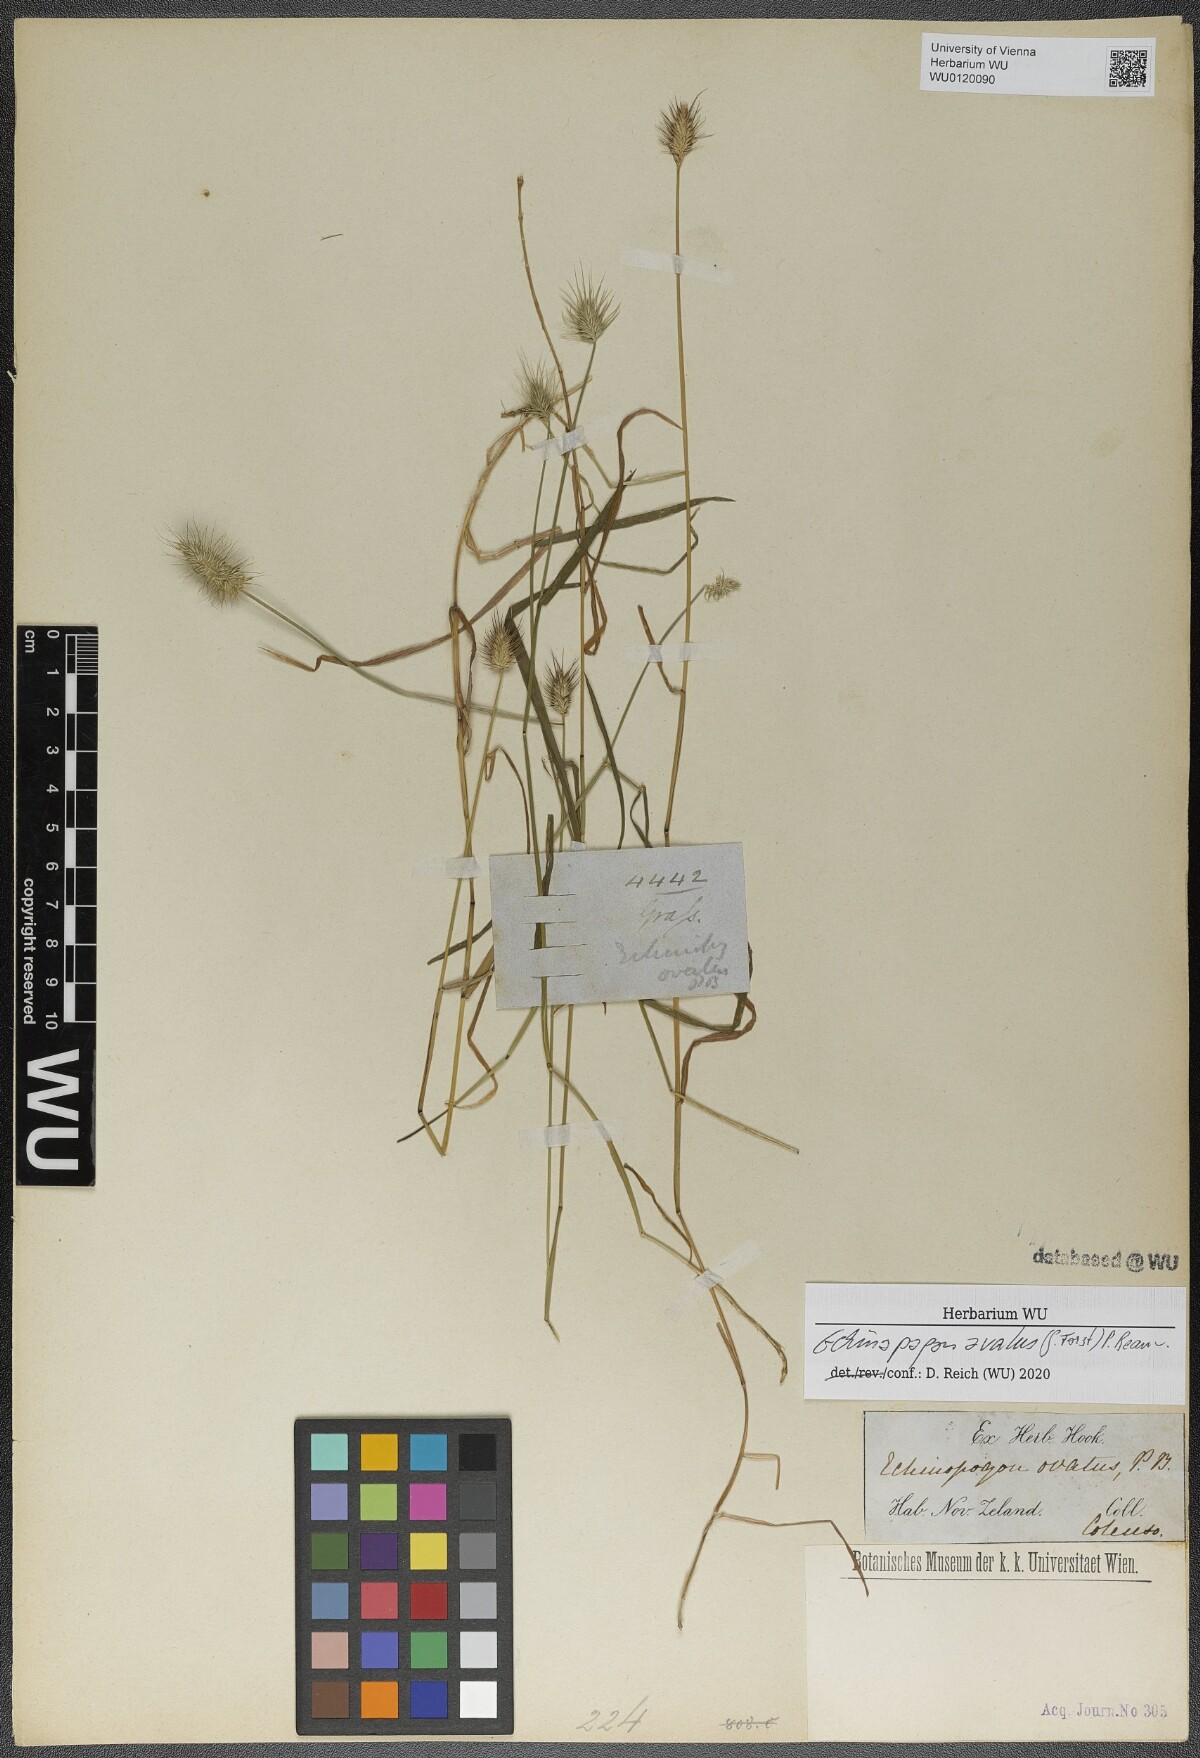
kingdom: Plantae
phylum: Tracheophyta
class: Liliopsida
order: Poales
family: Poaceae
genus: Echinopogon
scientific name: Echinopogon ovatus
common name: Hedgehog-grass
